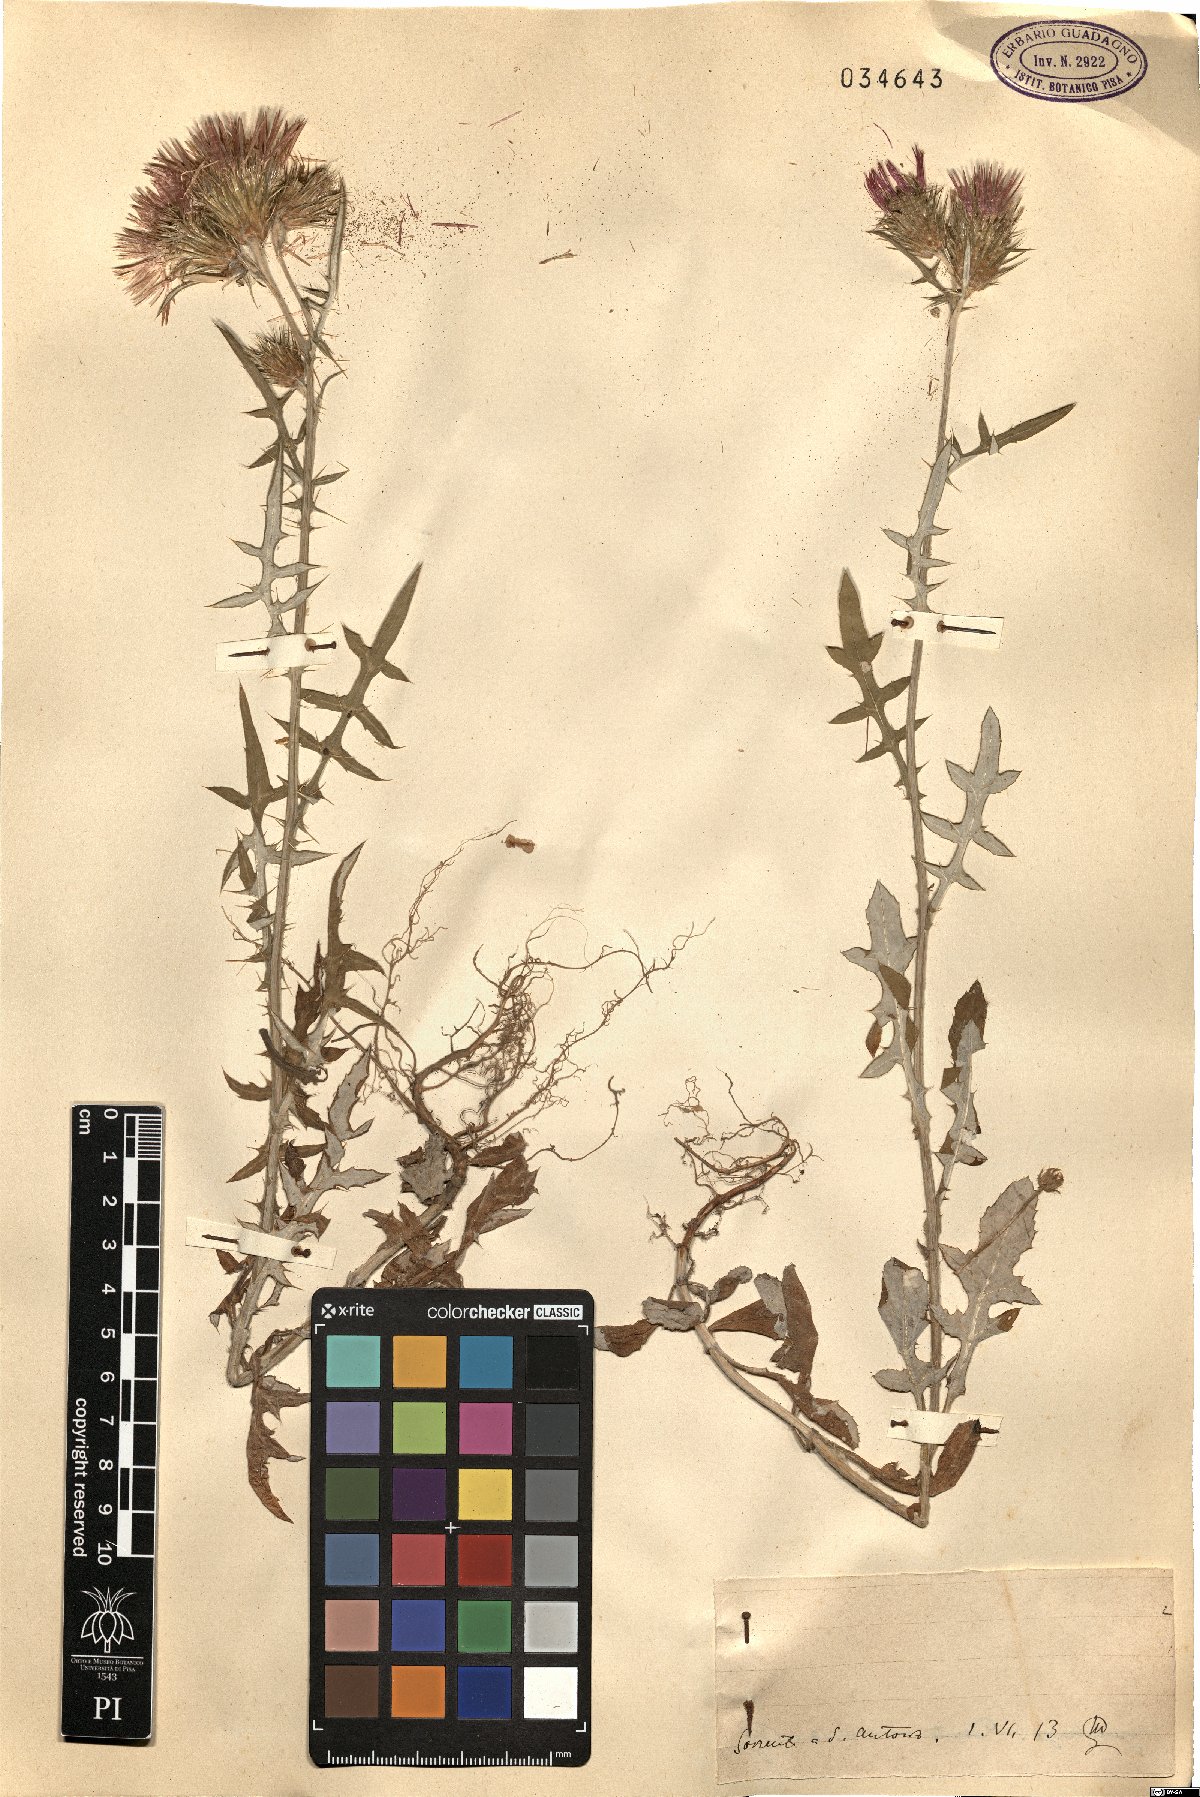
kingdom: Plantae
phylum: Tracheophyta
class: Magnoliopsida
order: Asterales
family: Asteraceae
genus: Tyrimnus
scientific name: Tyrimnus
